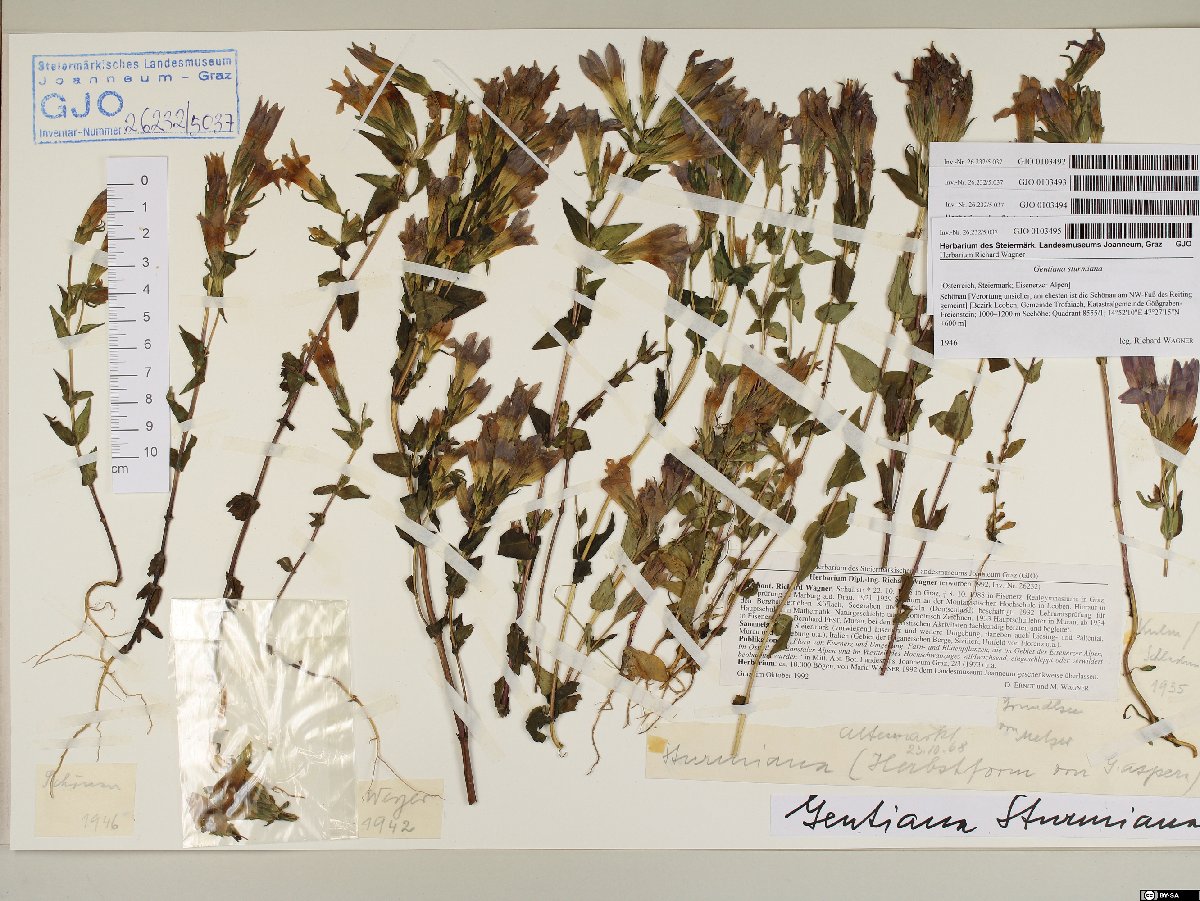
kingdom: Plantae
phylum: Tracheophyta
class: Magnoliopsida
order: Gentianales
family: Gentianaceae
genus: Gentianella
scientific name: Gentianella obtusifolia
